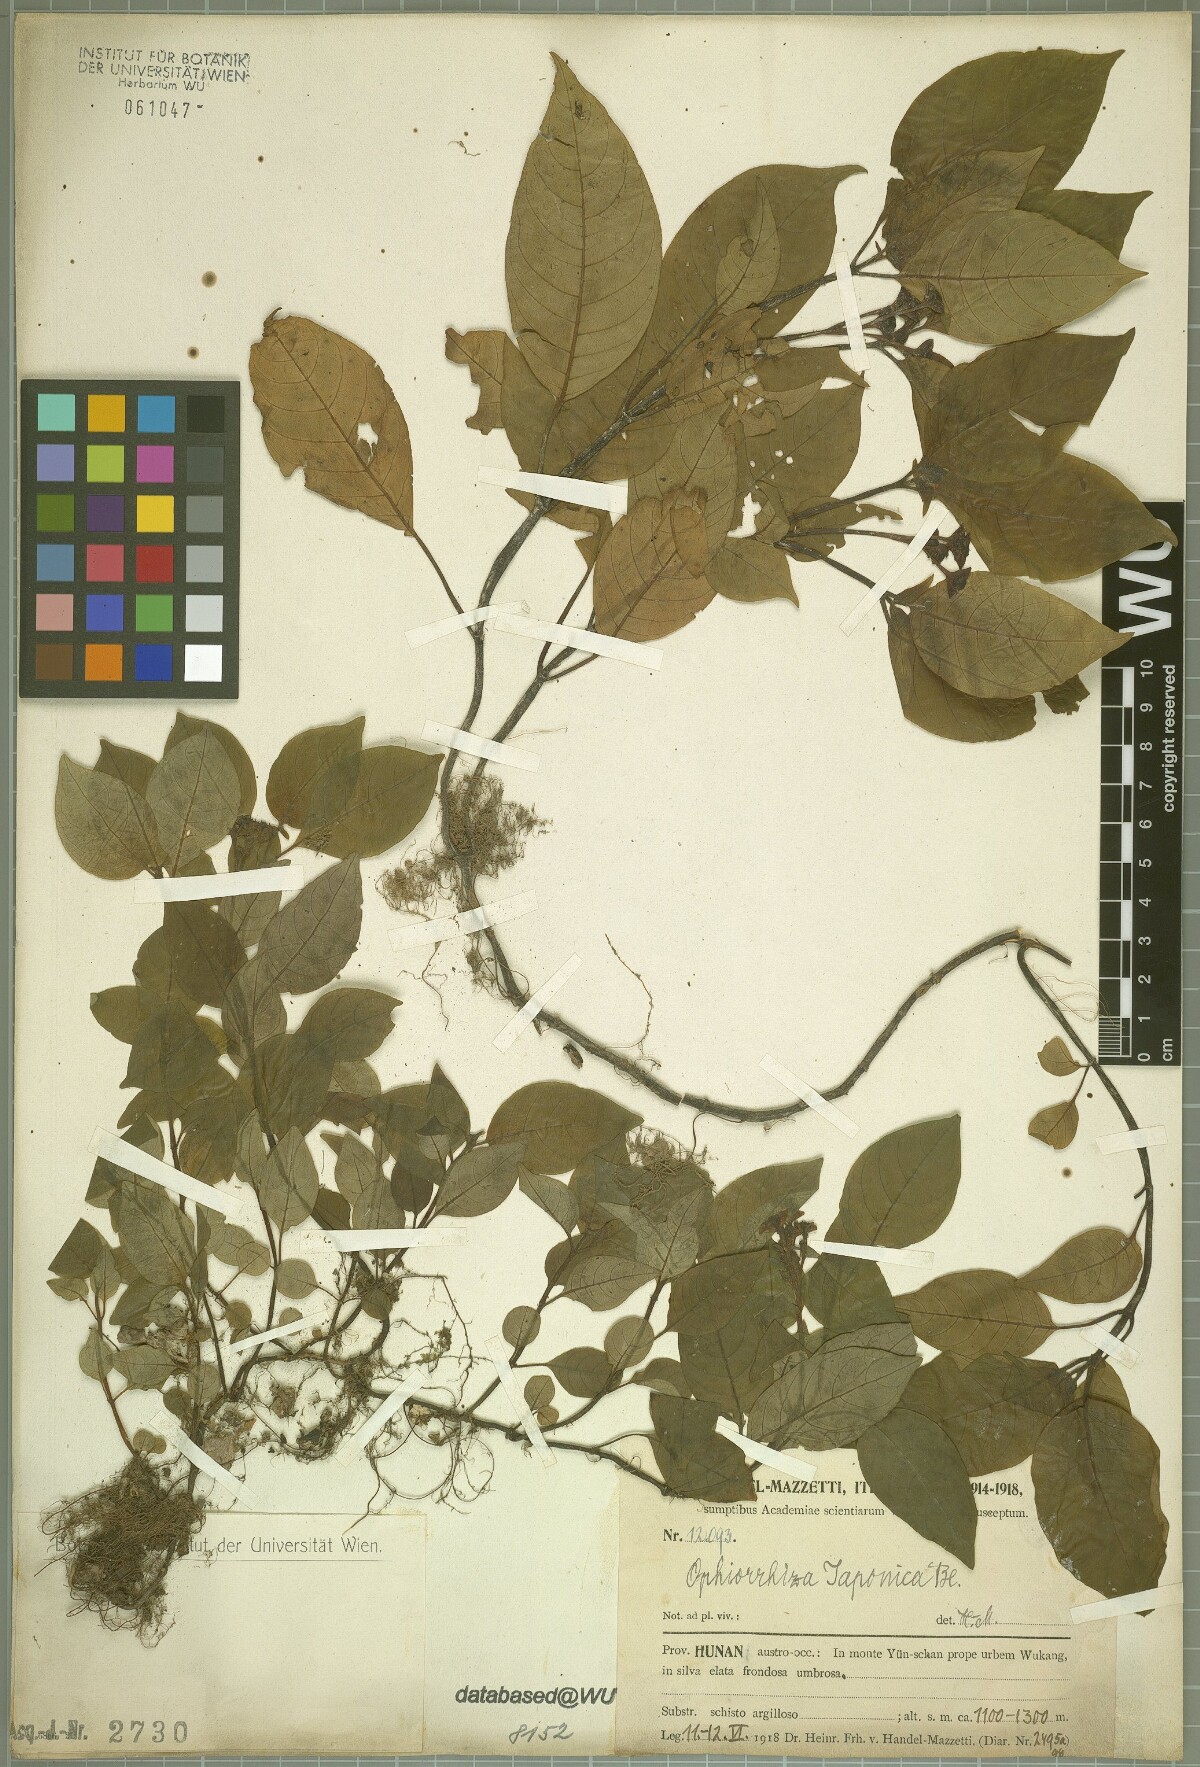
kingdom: Plantae
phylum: Tracheophyta
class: Magnoliopsida
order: Gentianales
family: Rubiaceae
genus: Ophiorrhiza
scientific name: Ophiorrhiza japonica
